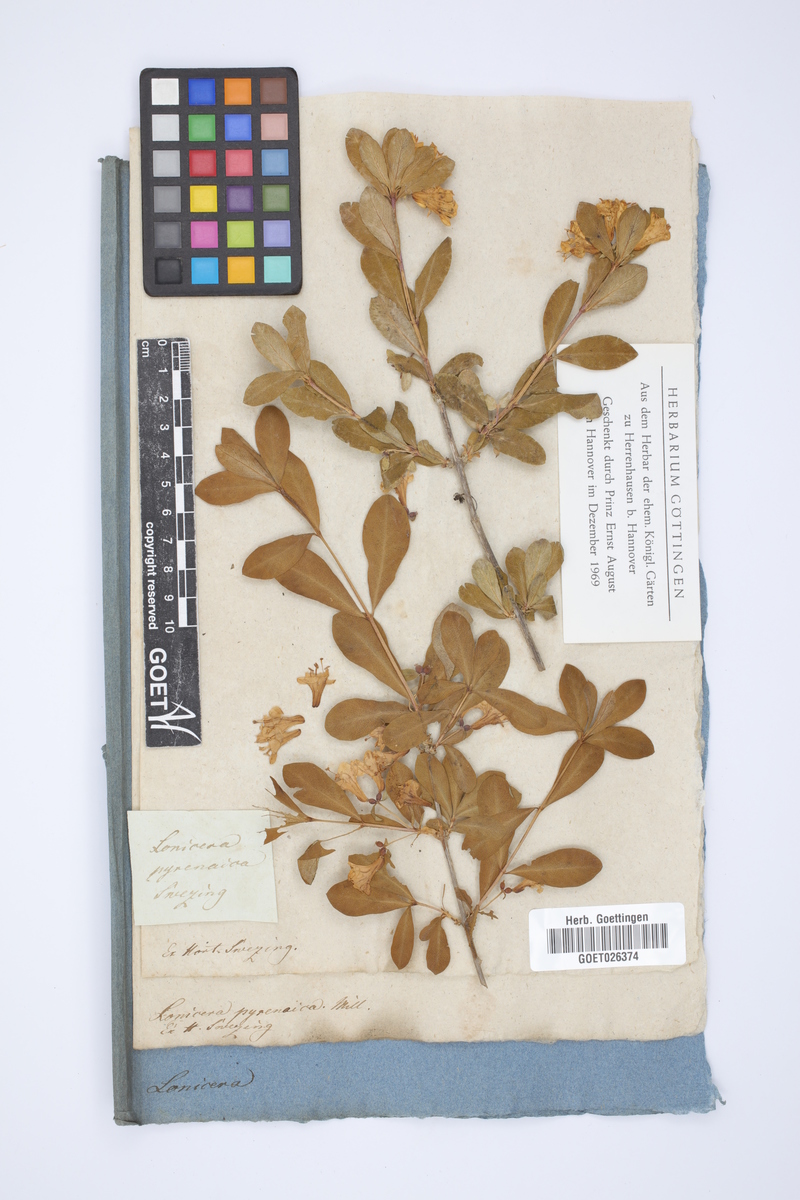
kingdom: Plantae
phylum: Tracheophyta
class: Magnoliopsida
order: Dipsacales
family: Caprifoliaceae
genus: Lonicera
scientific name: Lonicera pyrenaica
